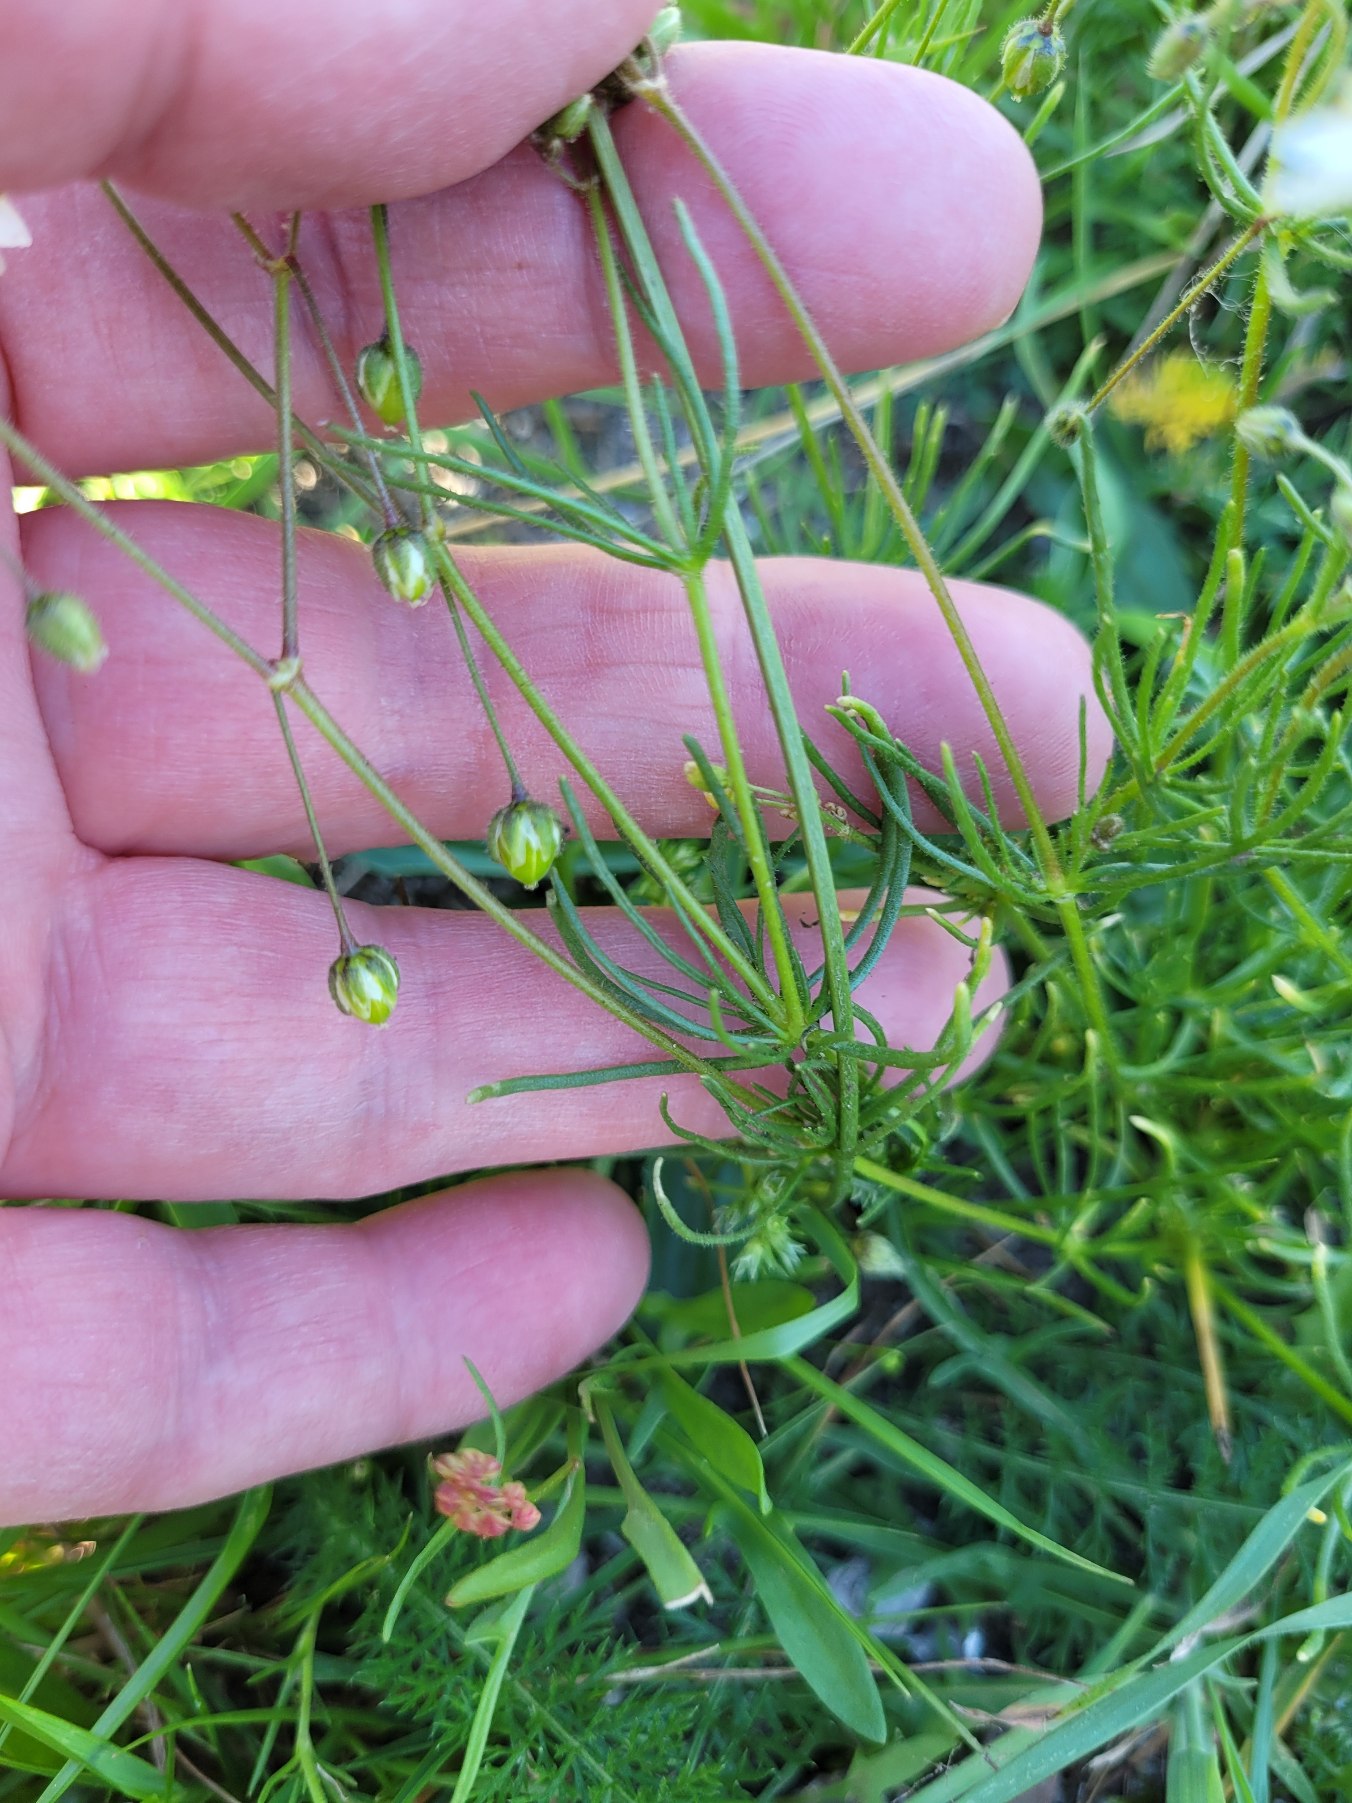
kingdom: Plantae
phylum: Tracheophyta
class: Magnoliopsida
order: Caryophyllales
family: Caryophyllaceae
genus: Spergula
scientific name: Spergula arvensis
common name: Almindelig spergel (underart)
